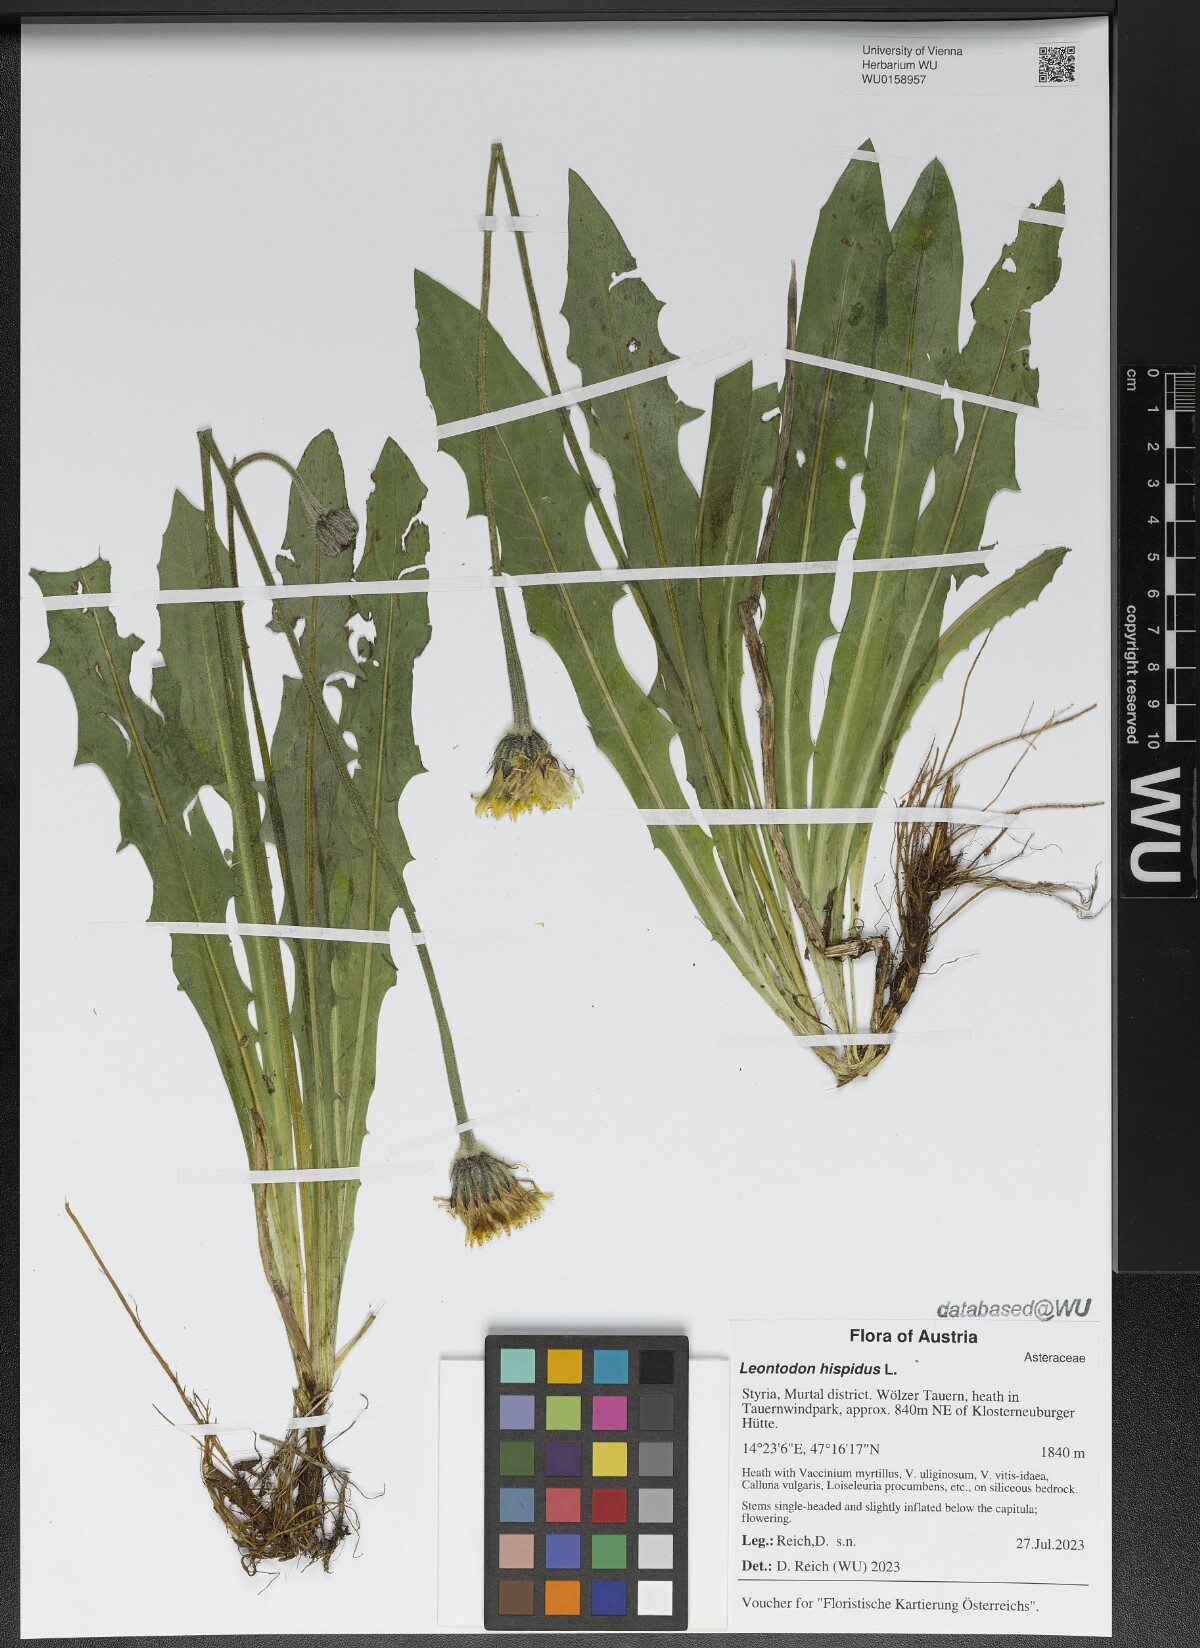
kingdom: Plantae
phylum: Tracheophyta
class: Magnoliopsida
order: Asterales
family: Asteraceae
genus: Leontodon
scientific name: Leontodon hispidus
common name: Rough hawkbit
